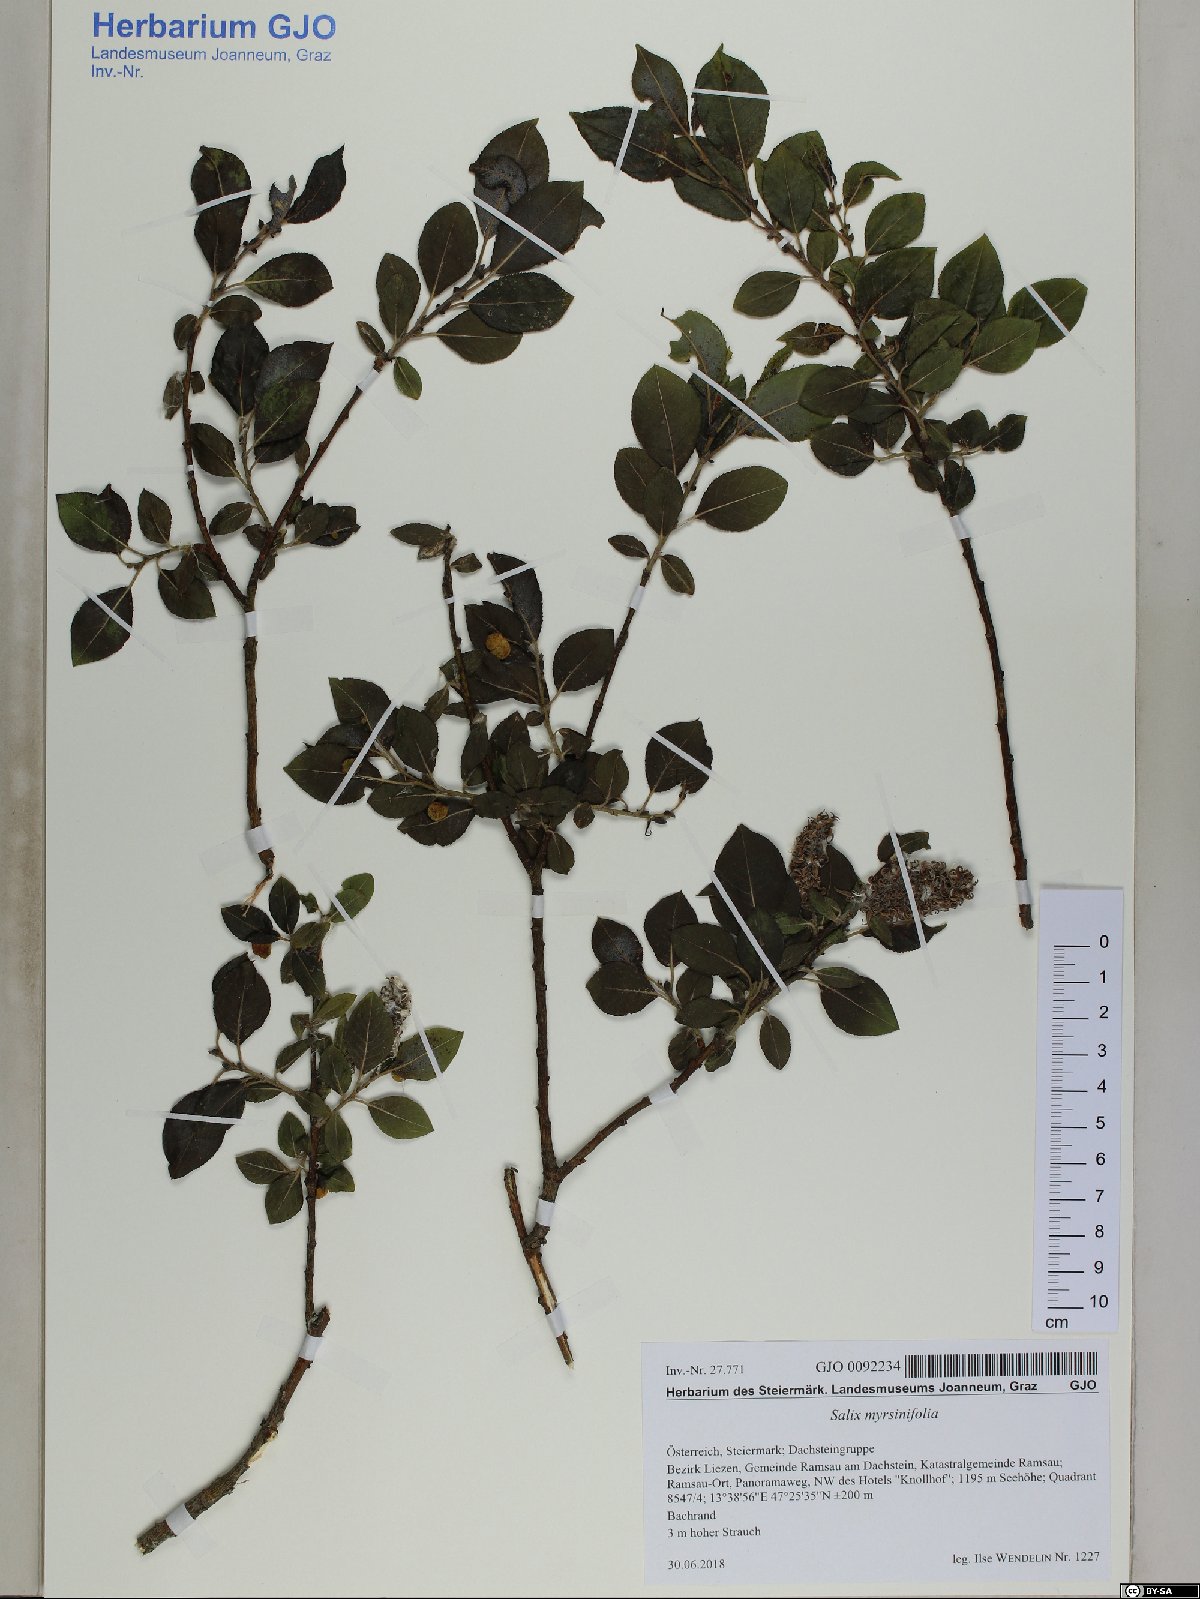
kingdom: Plantae
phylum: Tracheophyta
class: Magnoliopsida
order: Malpighiales
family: Salicaceae
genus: Salix
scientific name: Salix myrsinifolia
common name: Dark-leaved willow
